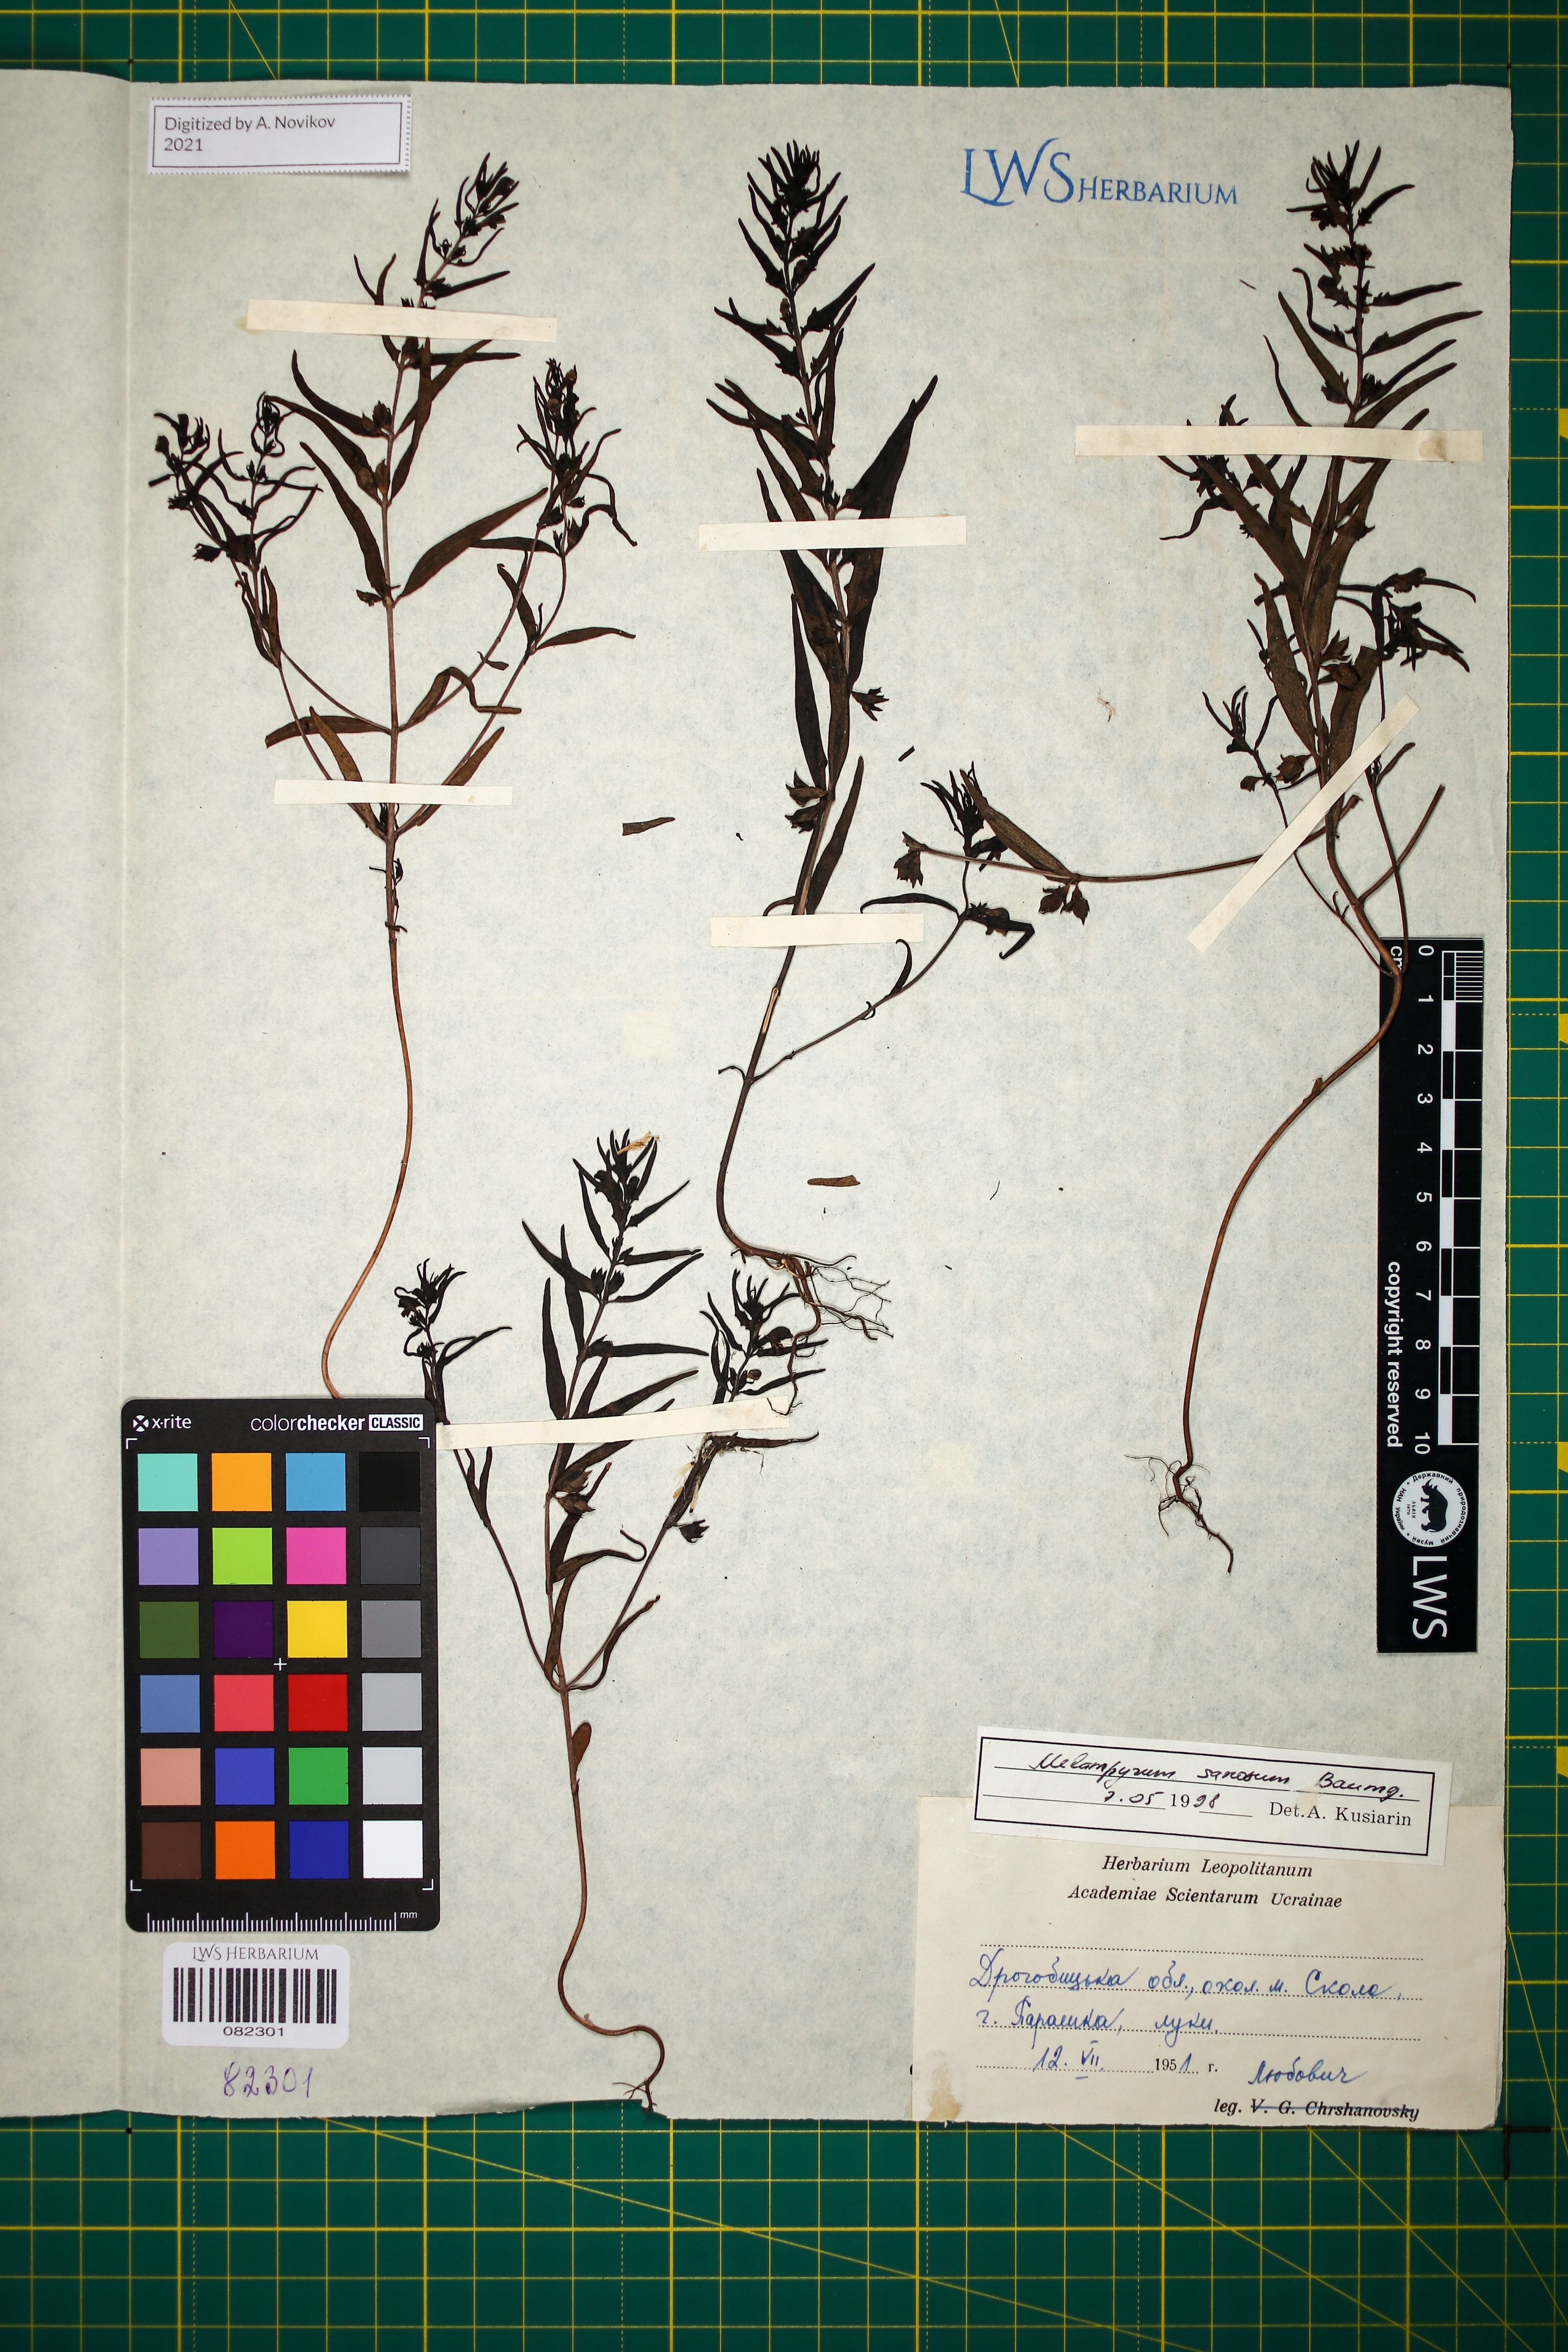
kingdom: Plantae
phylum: Tracheophyta
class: Magnoliopsida
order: Lamiales
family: Orobanchaceae
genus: Melampyrum
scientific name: Melampyrum saxosum
